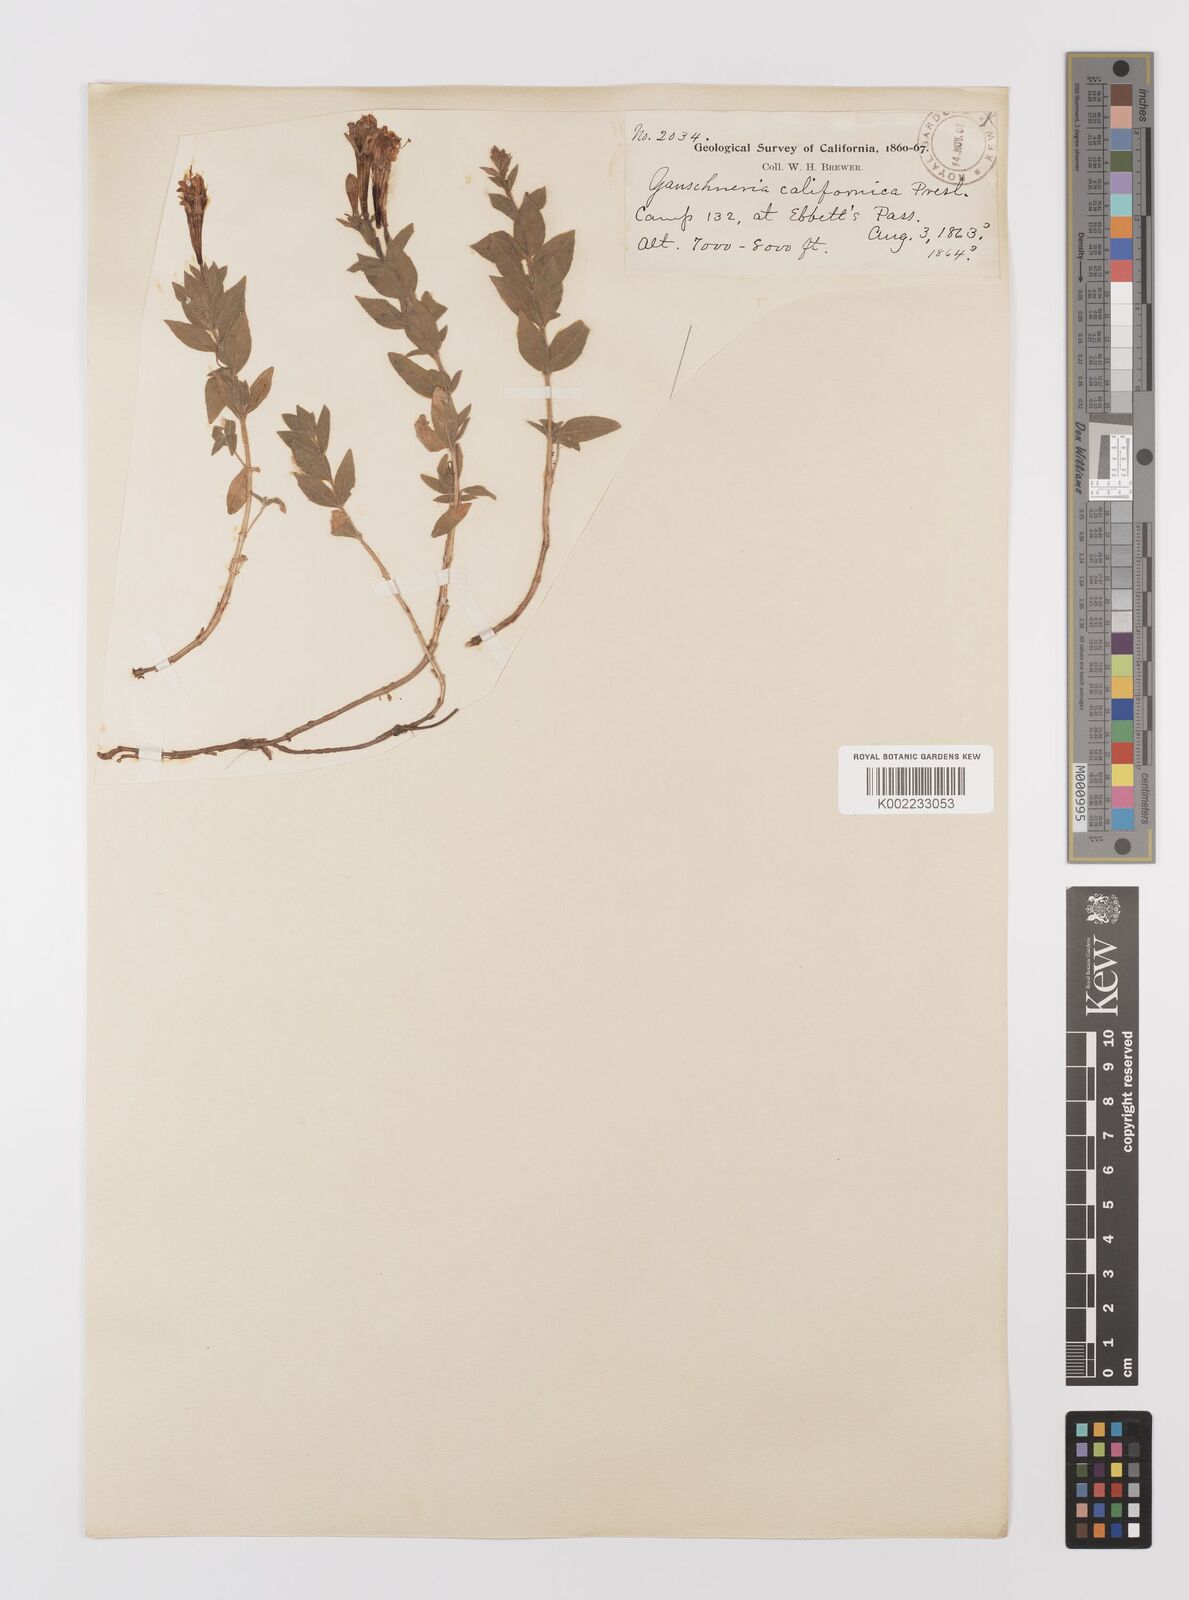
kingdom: Plantae
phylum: Tracheophyta
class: Magnoliopsida
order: Myrtales
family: Onagraceae
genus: Epilobium
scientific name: Epilobium
